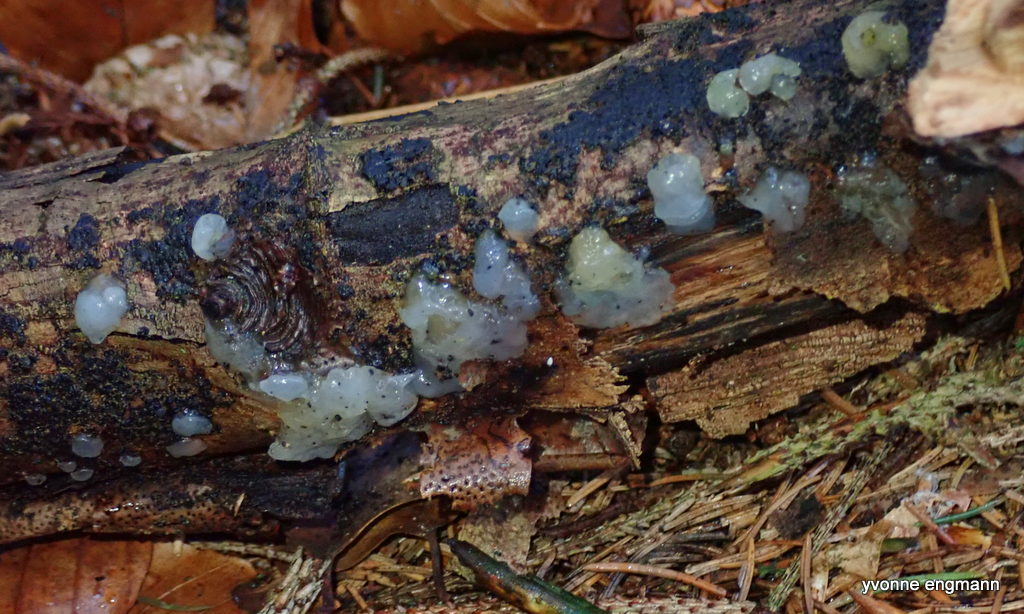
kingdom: Fungi
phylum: Basidiomycota
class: Agaricomycetes
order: Auriculariales
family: Hyaloriaceae
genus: Myxarium
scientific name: Myxarium nucleatum
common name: klar bævretop
